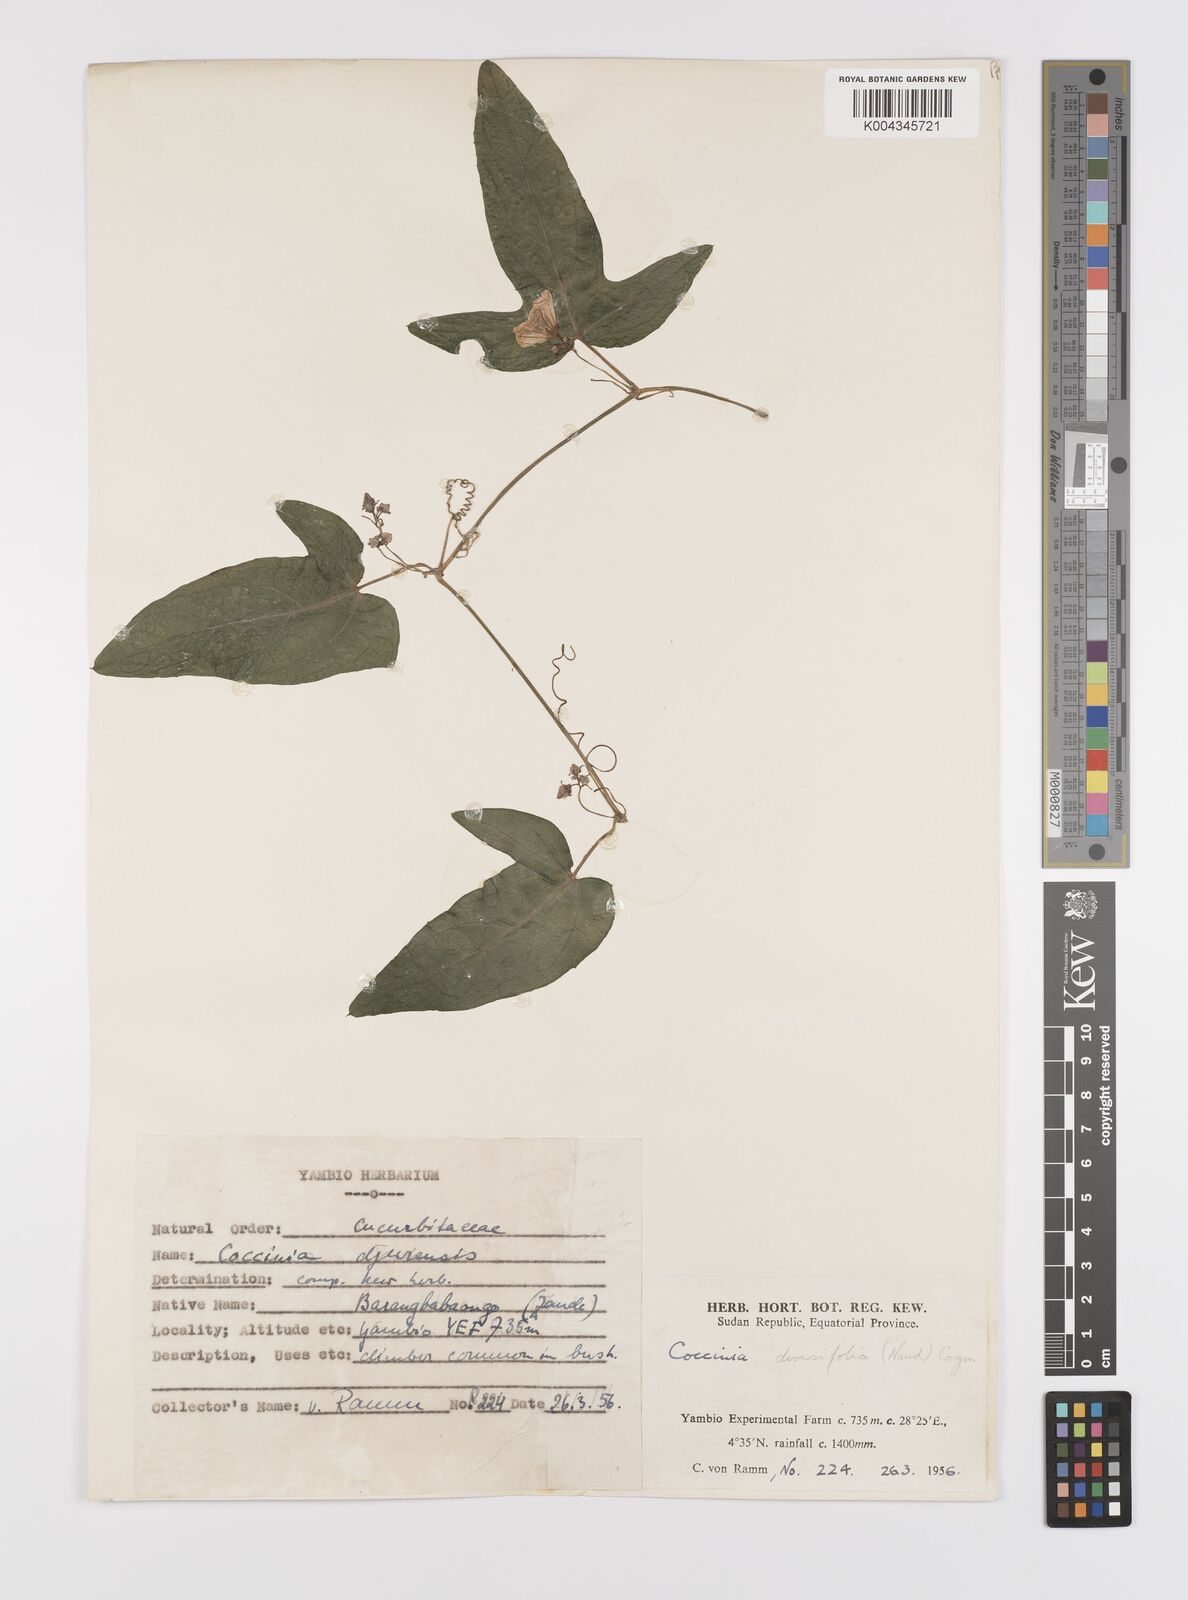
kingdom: Plantae
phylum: Tracheophyta
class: Magnoliopsida
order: Cucurbitales
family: Cucurbitaceae
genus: Coccinia
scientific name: Coccinia adoensis
